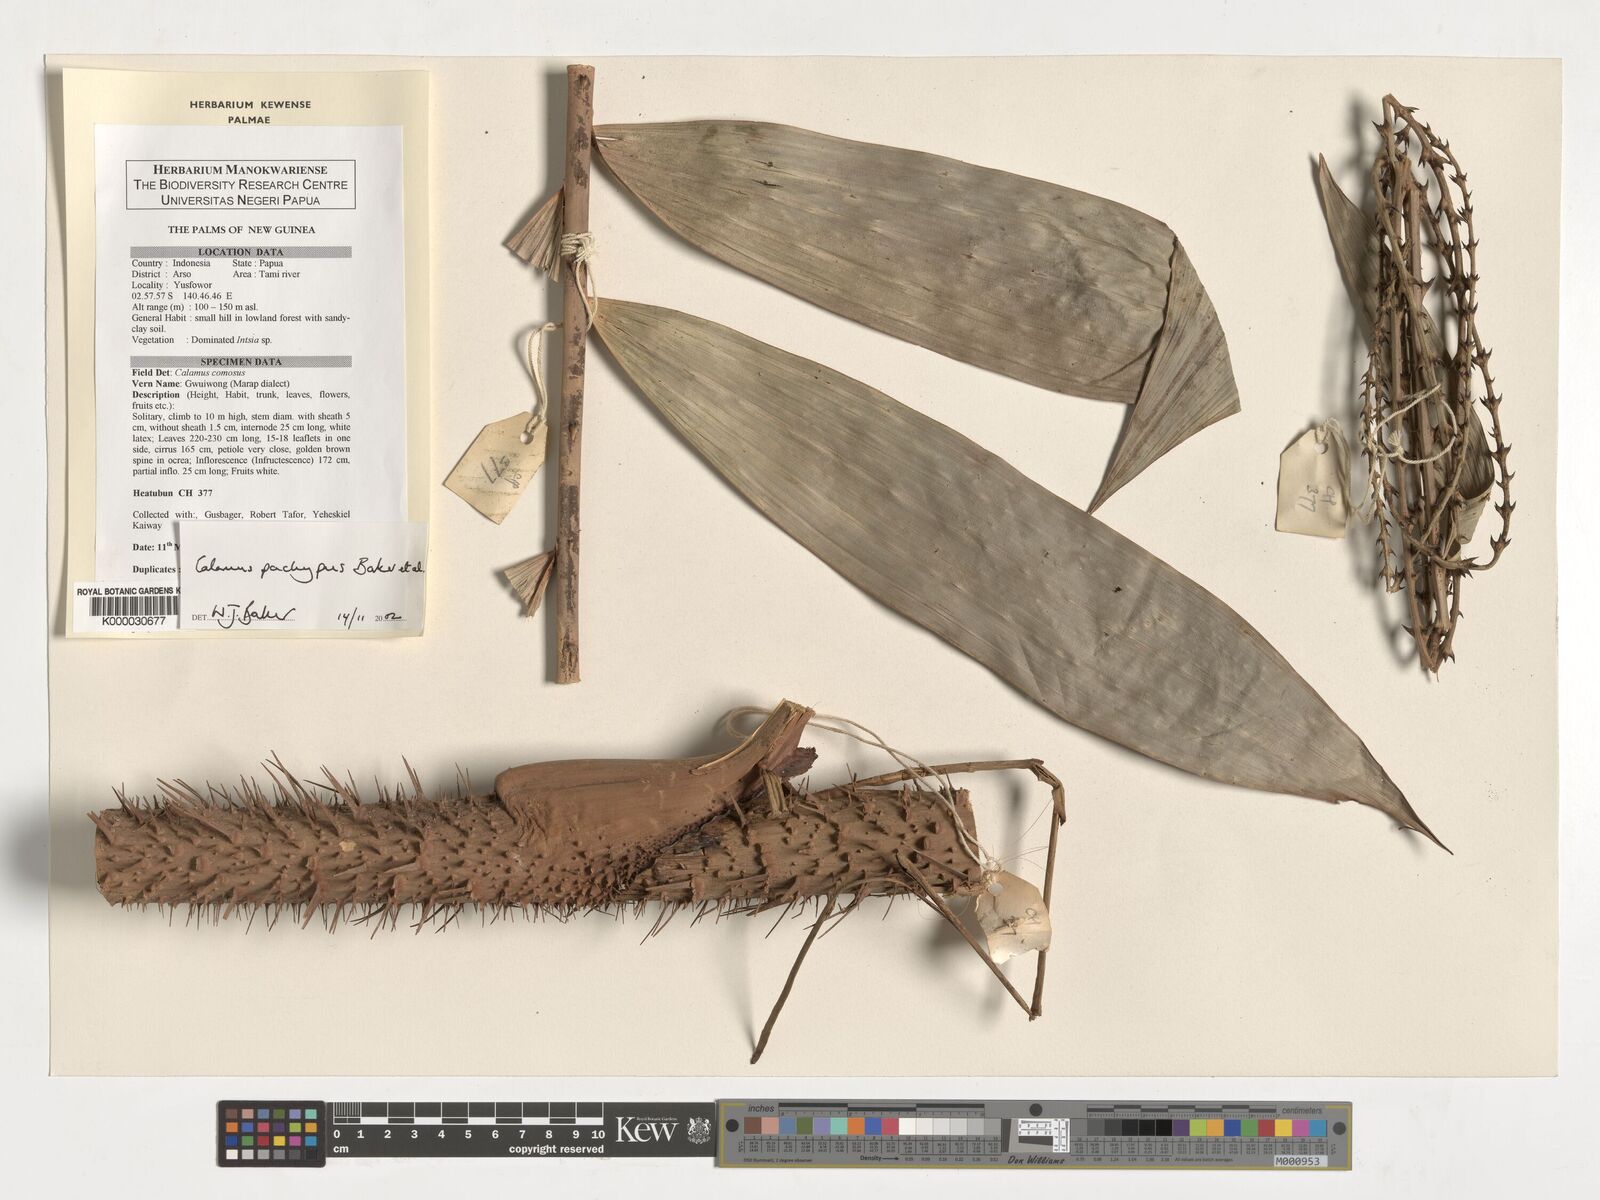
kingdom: Plantae
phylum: Tracheophyta
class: Liliopsida
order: Arecales
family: Arecaceae
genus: Calamus
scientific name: Calamus
